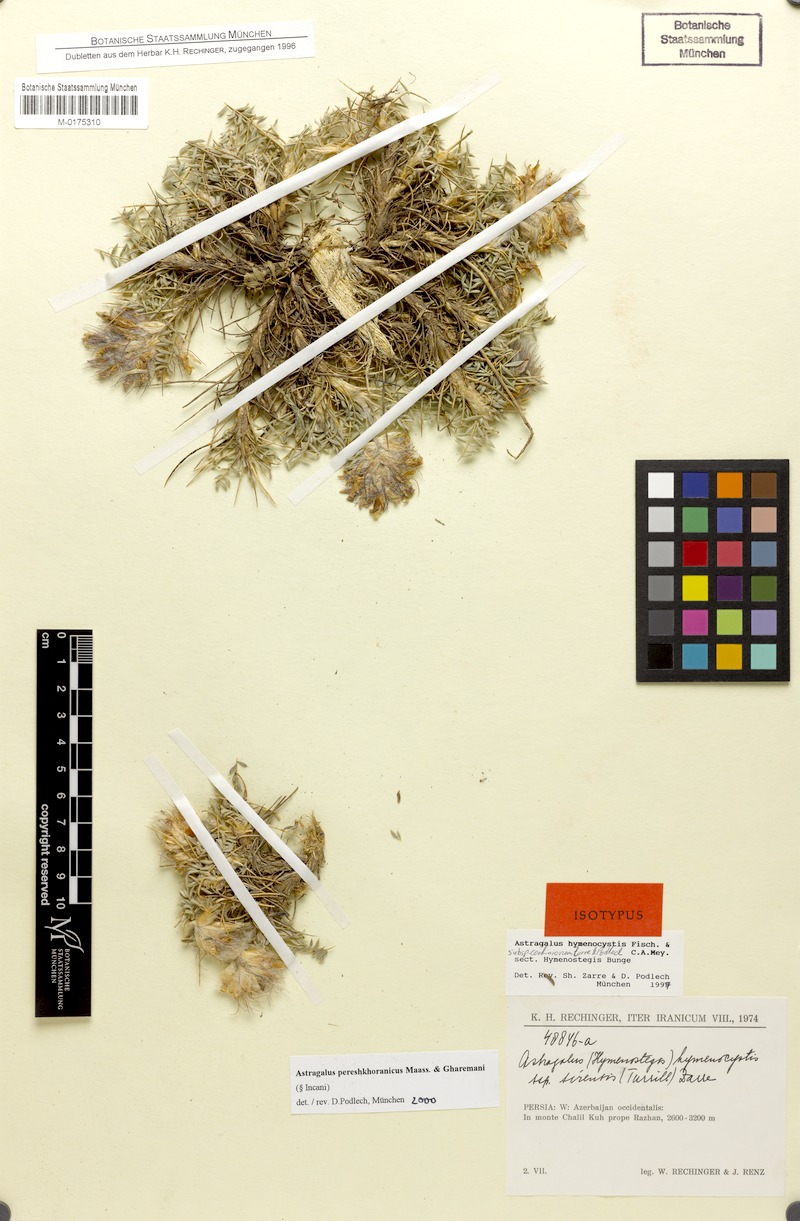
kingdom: Plantae
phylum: Tracheophyta
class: Magnoliopsida
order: Fabales
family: Fabaceae
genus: Astragalus
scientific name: Astragalus pereshkhoranicus
